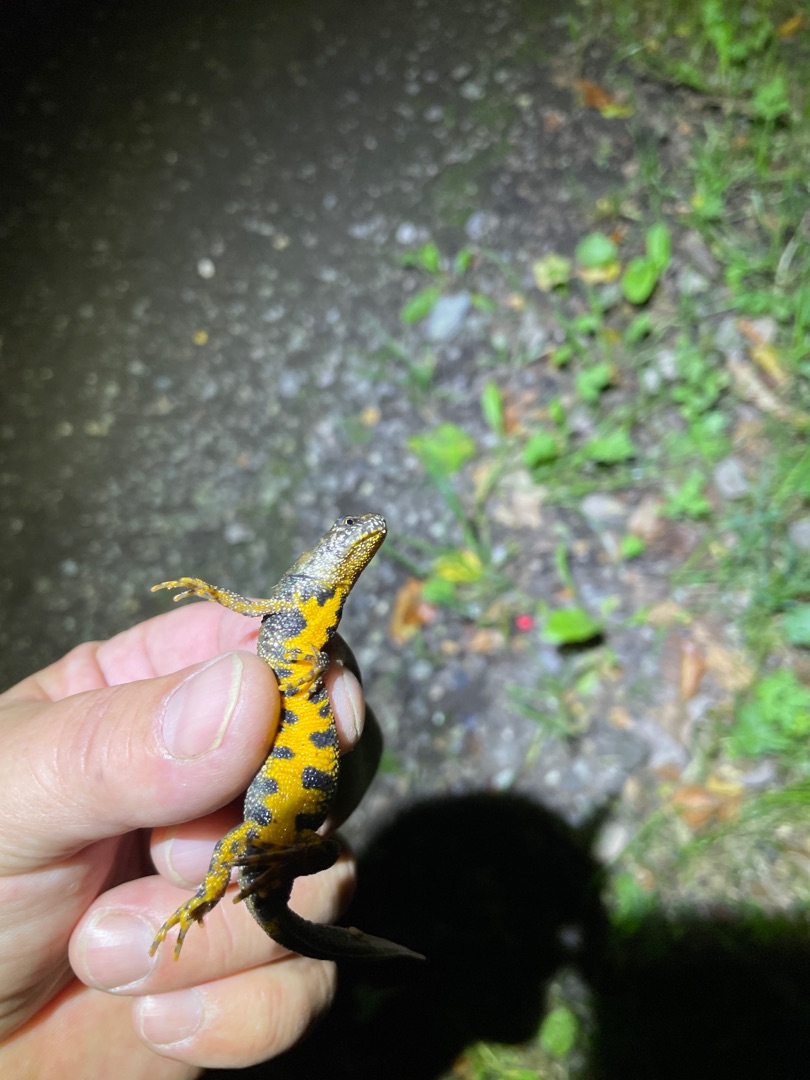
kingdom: Animalia
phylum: Chordata
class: Amphibia
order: Caudata
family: Salamandridae
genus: Triturus
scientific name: Triturus cristatus
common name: Stor vandsalamander
